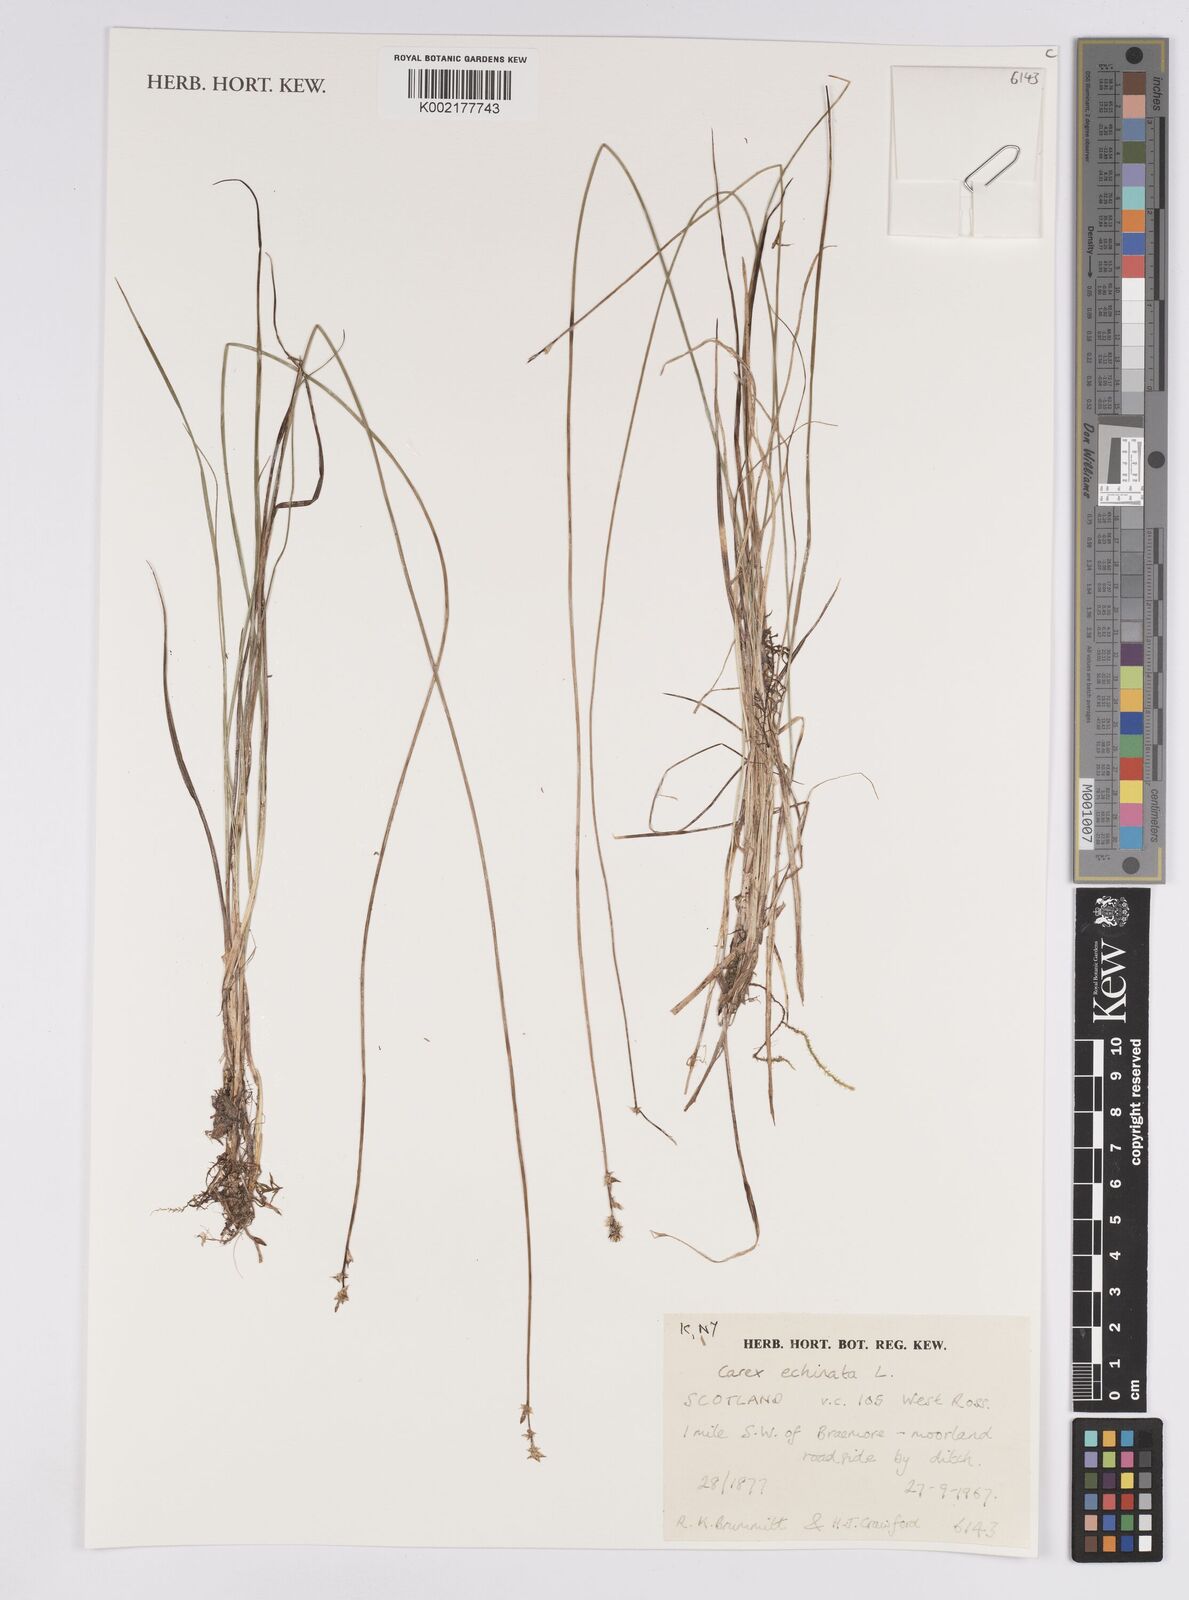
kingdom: Plantae
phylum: Tracheophyta
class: Liliopsida
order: Poales
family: Cyperaceae
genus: Carex
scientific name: Carex flava
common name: Large yellow-sedge
